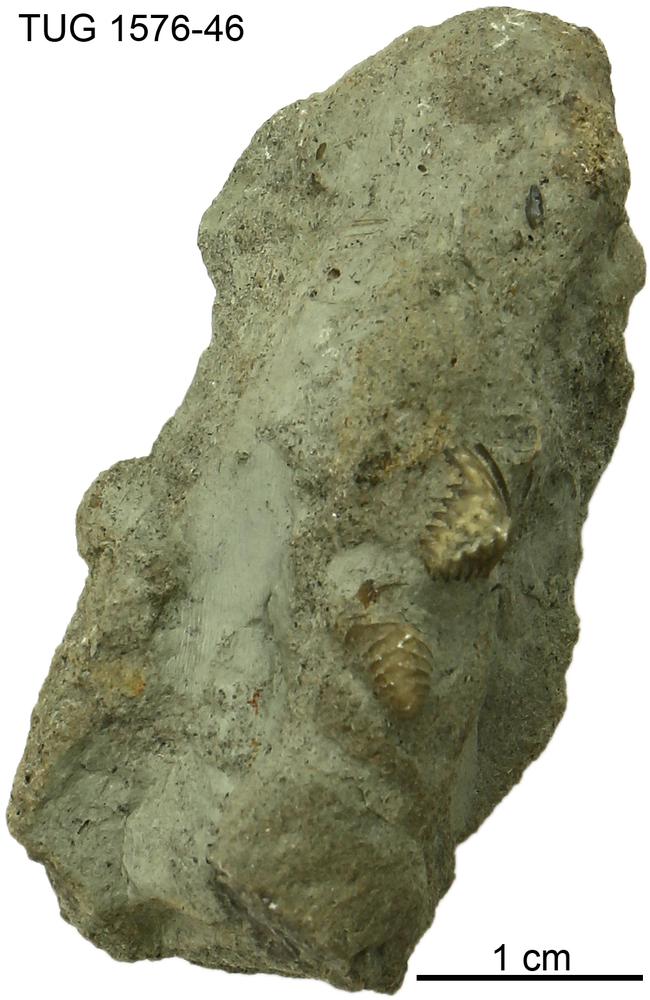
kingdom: Animalia
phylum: Brachiopoda
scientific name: Brachiopoda
